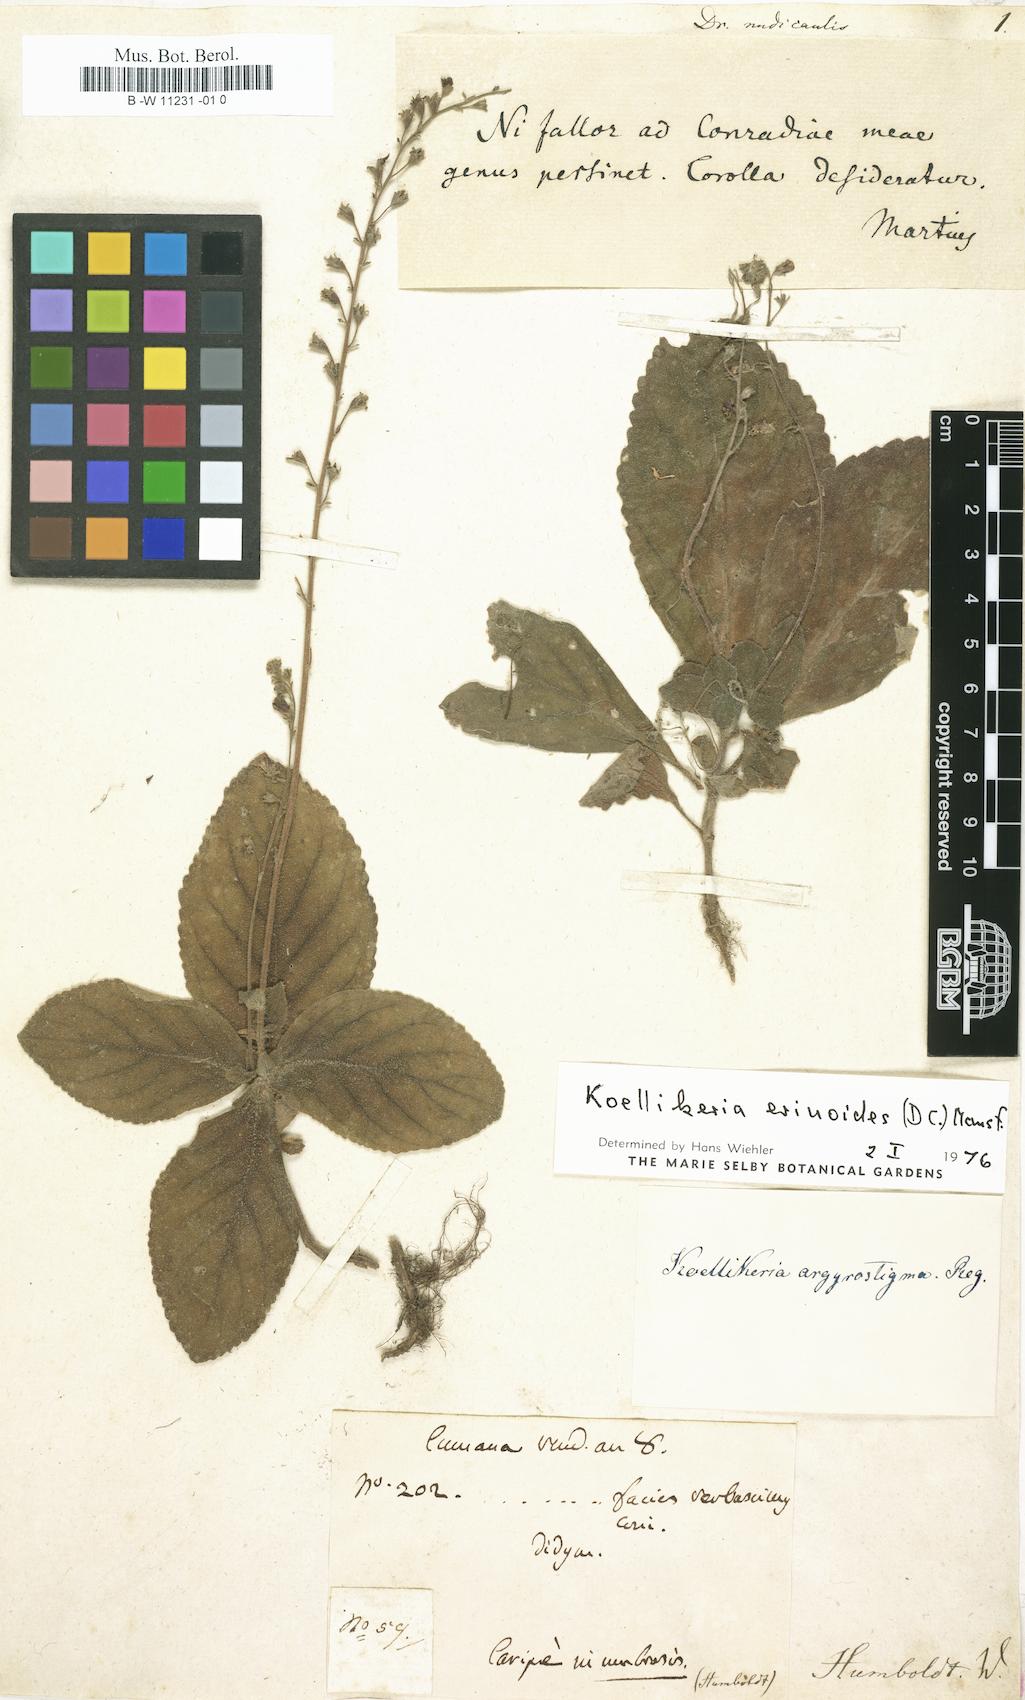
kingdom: Plantae
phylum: Tracheophyta
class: Liliopsida
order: Liliales
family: Alstroemeriaceae
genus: Drymophila
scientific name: Drymophila
